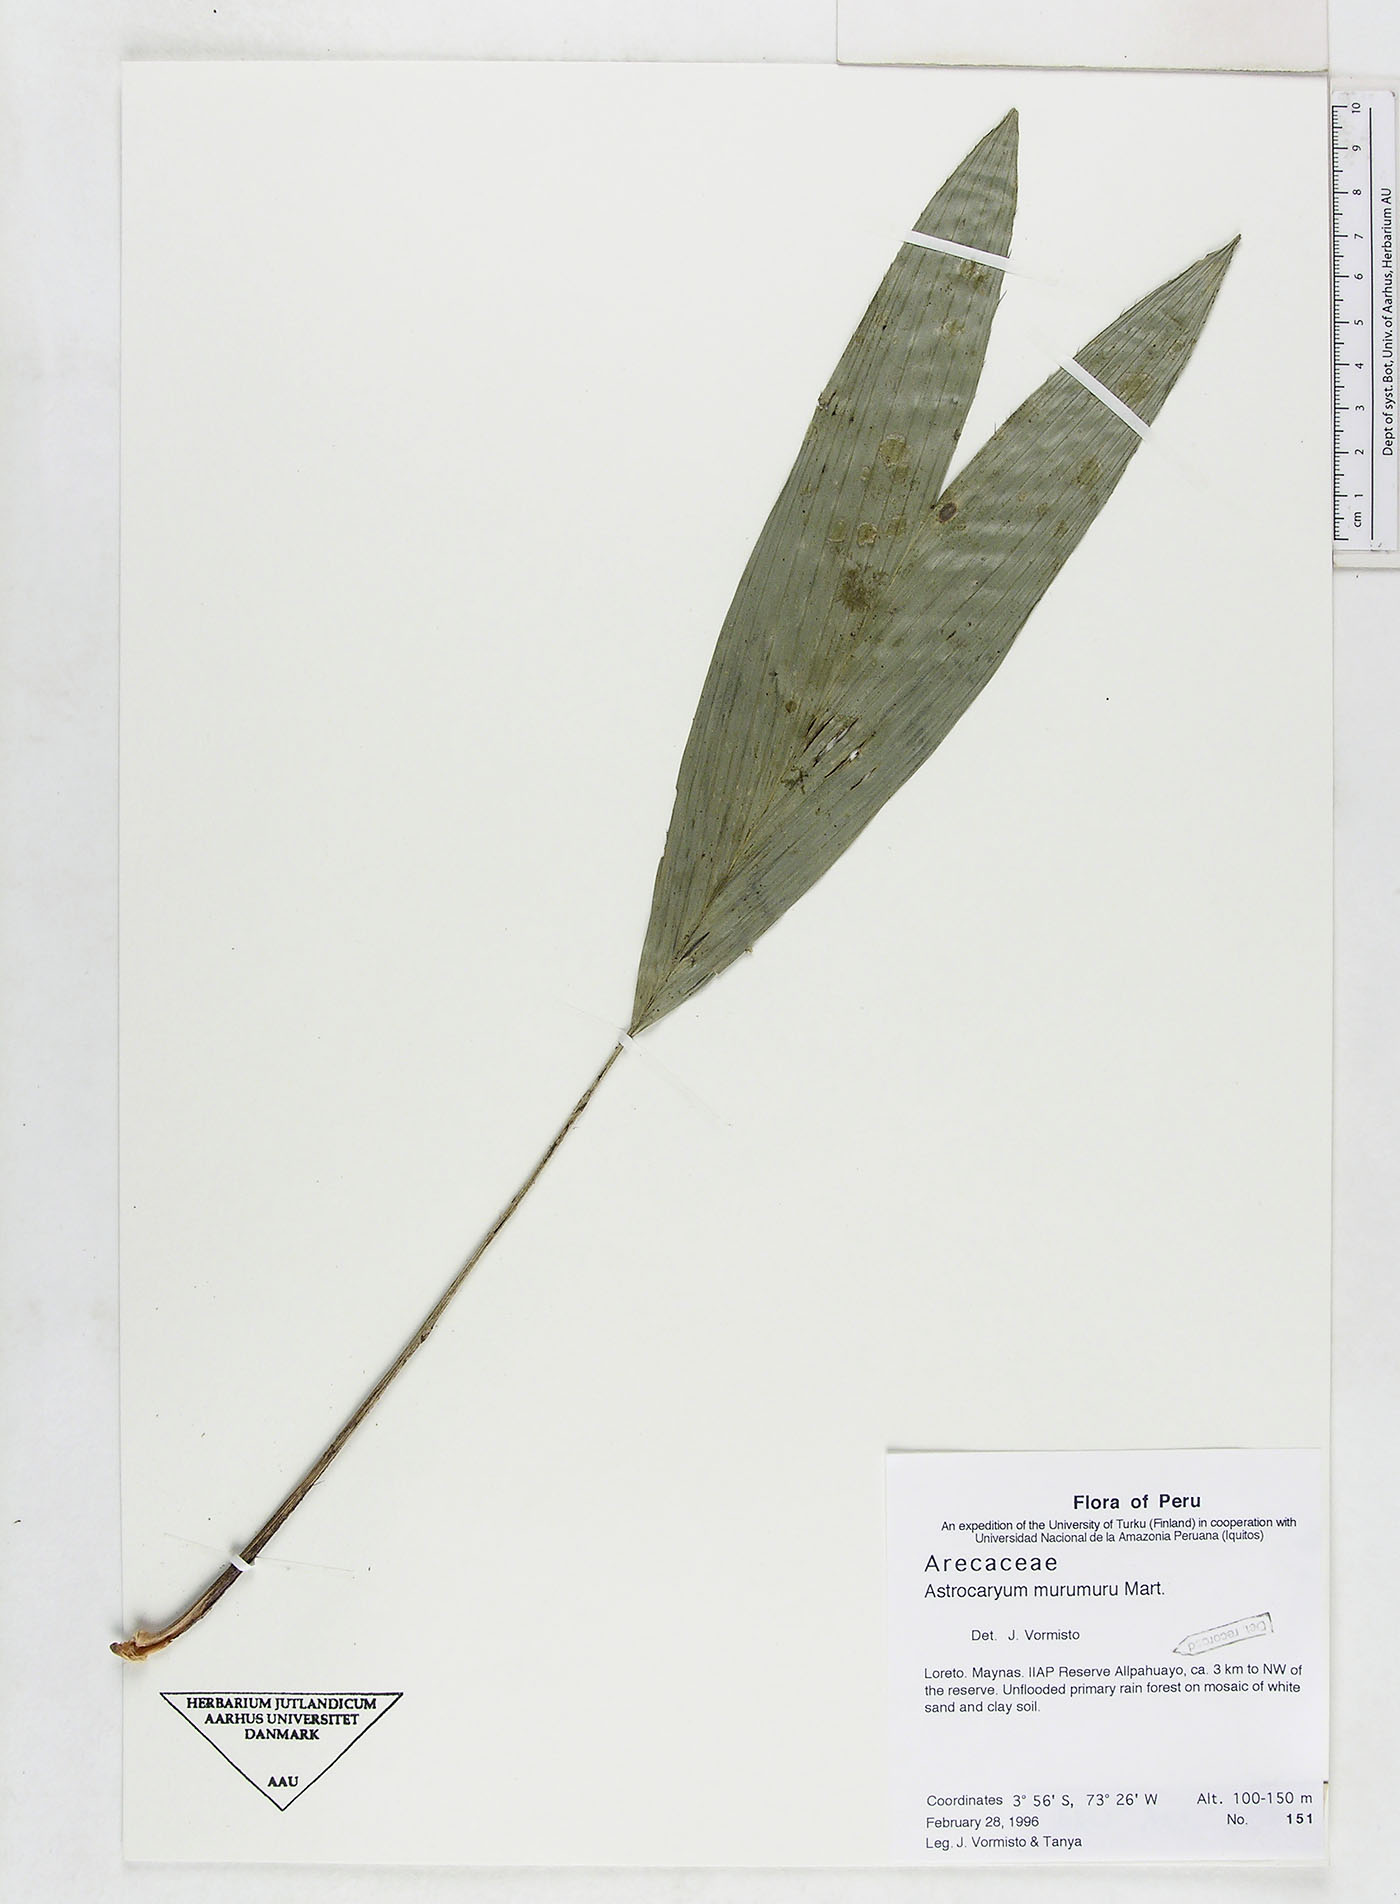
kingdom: Plantae
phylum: Tracheophyta
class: Liliopsida
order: Arecales
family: Arecaceae
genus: Astrocaryum
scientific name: Astrocaryum murumuru
